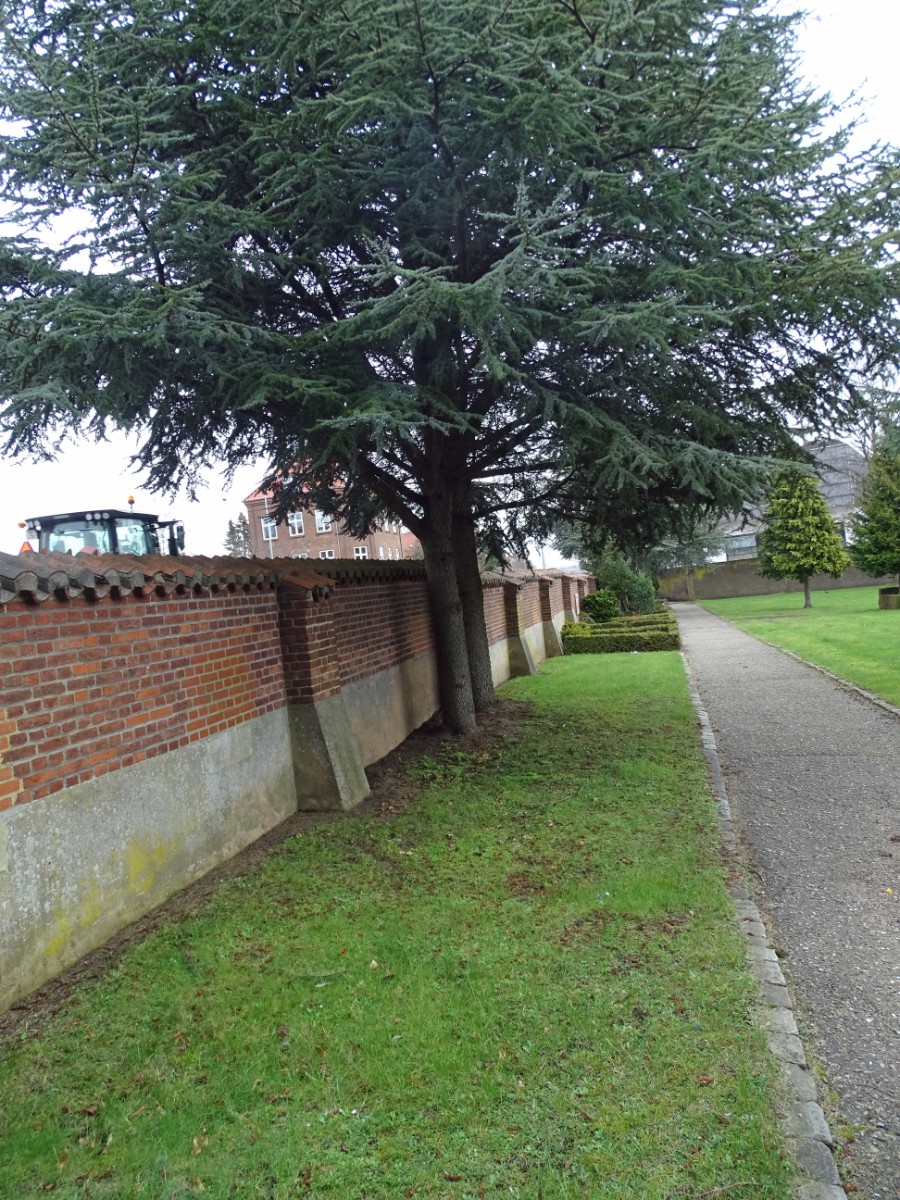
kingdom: Fungi
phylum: Ascomycota
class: Pezizomycetes
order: Pezizales
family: Pyronemataceae
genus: Geopora
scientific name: Geopora sumneriana
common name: vår-jordbæger
